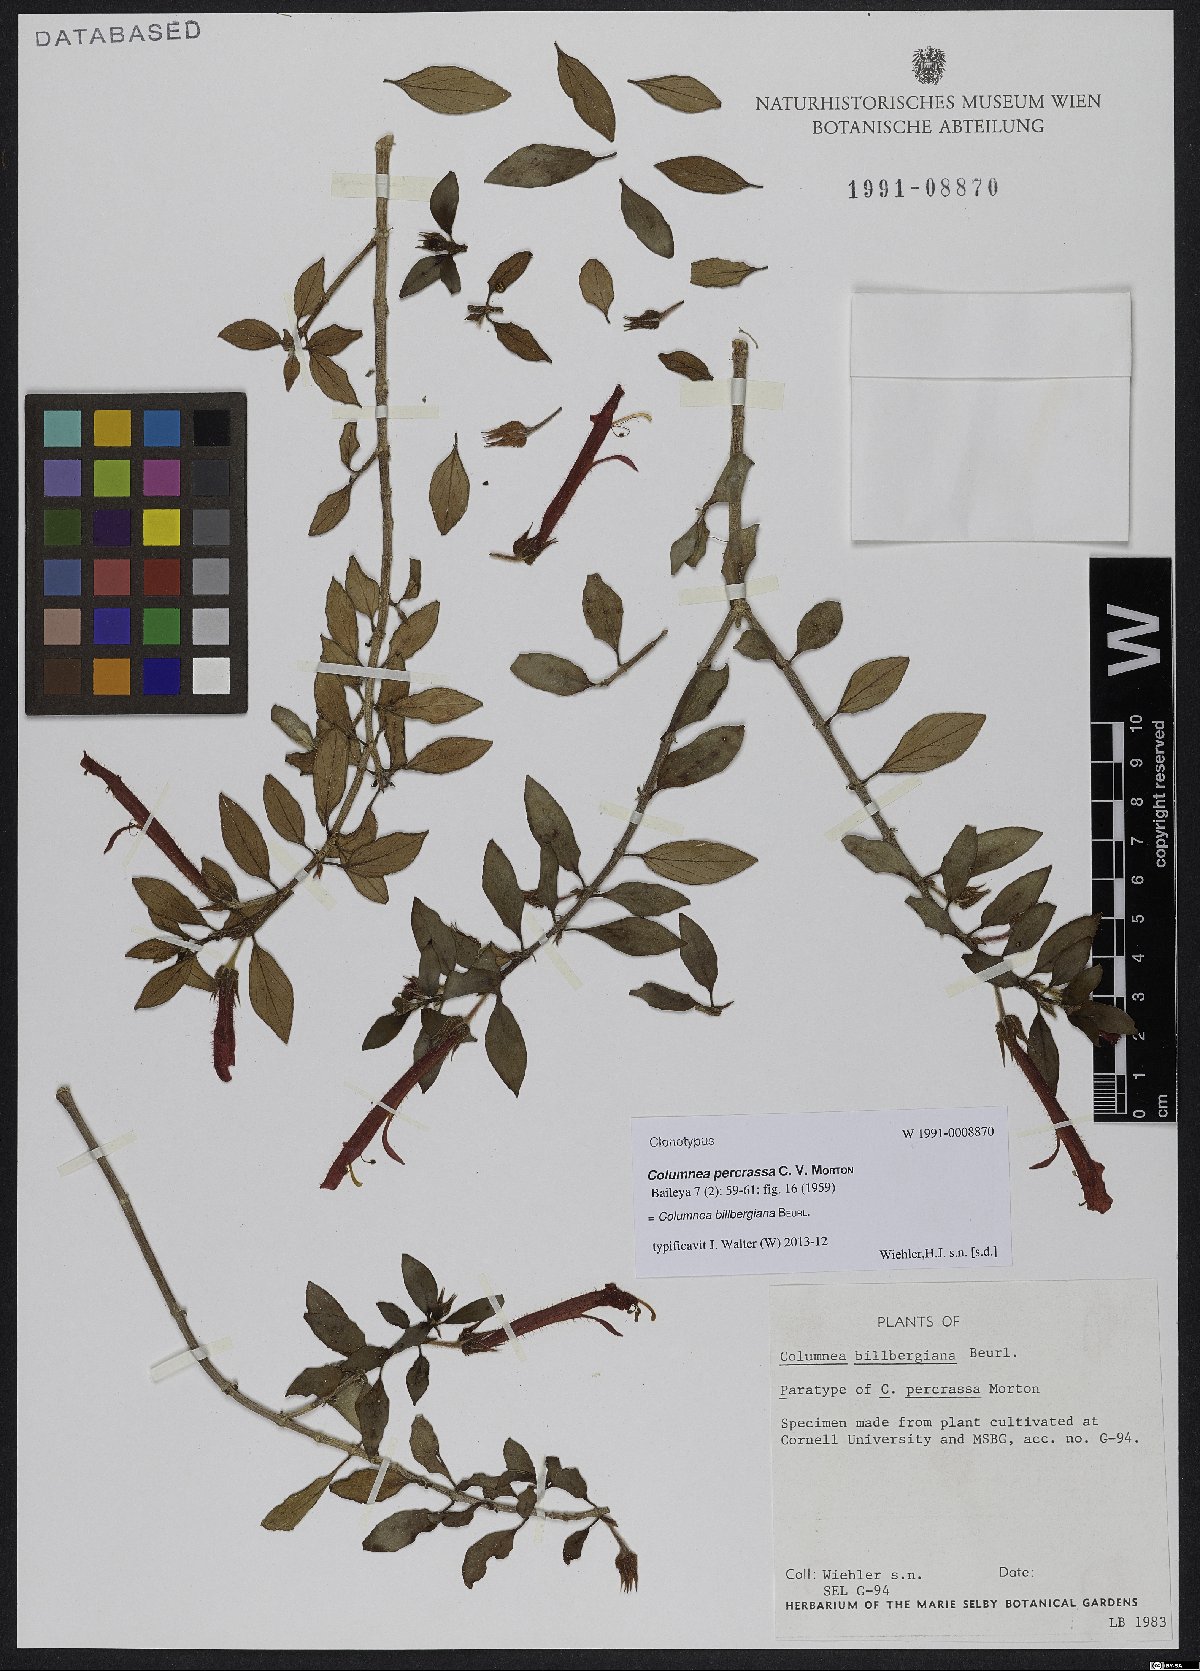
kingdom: Plantae
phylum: Tracheophyta
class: Magnoliopsida
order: Lamiales
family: Gesneriaceae
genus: Columnea
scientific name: Columnea billbergiana
